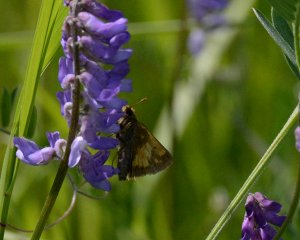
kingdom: Animalia
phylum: Arthropoda
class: Insecta
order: Lepidoptera
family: Hesperiidae
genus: Lon
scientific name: Lon hobomok
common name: Hobomok Skipper
